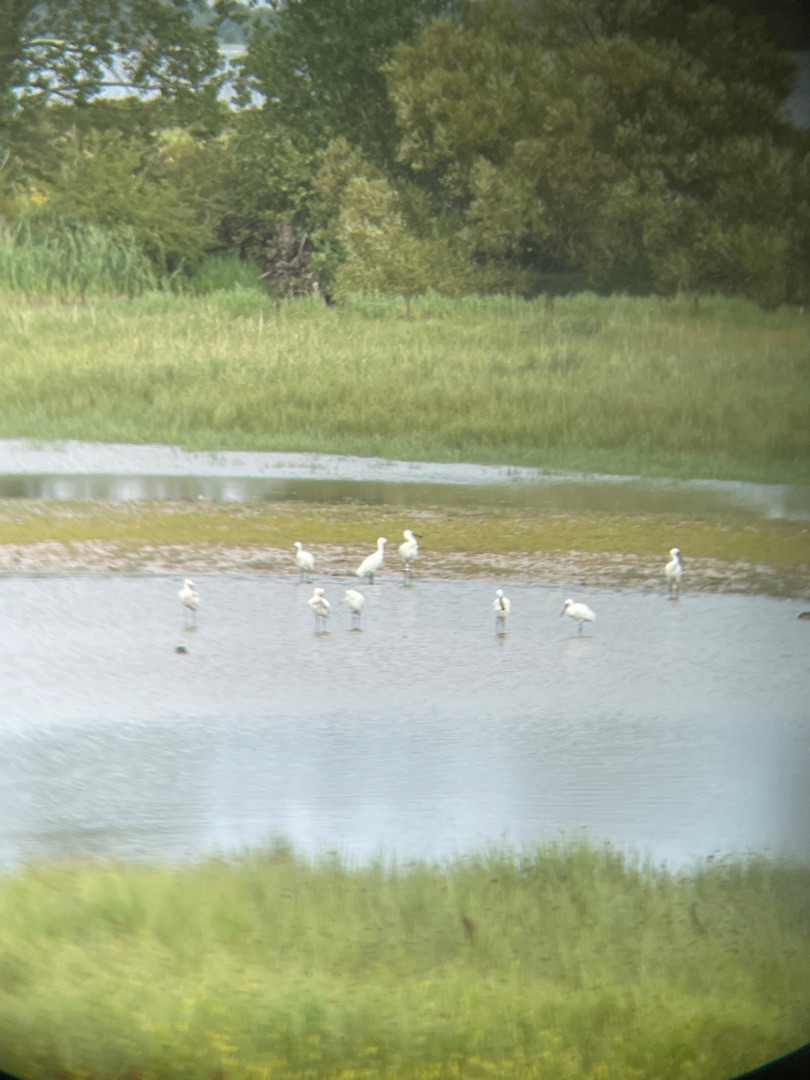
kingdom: Animalia
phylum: Chordata
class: Aves
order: Pelecaniformes
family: Threskiornithidae
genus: Platalea
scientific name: Platalea leucorodia
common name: Skestork
